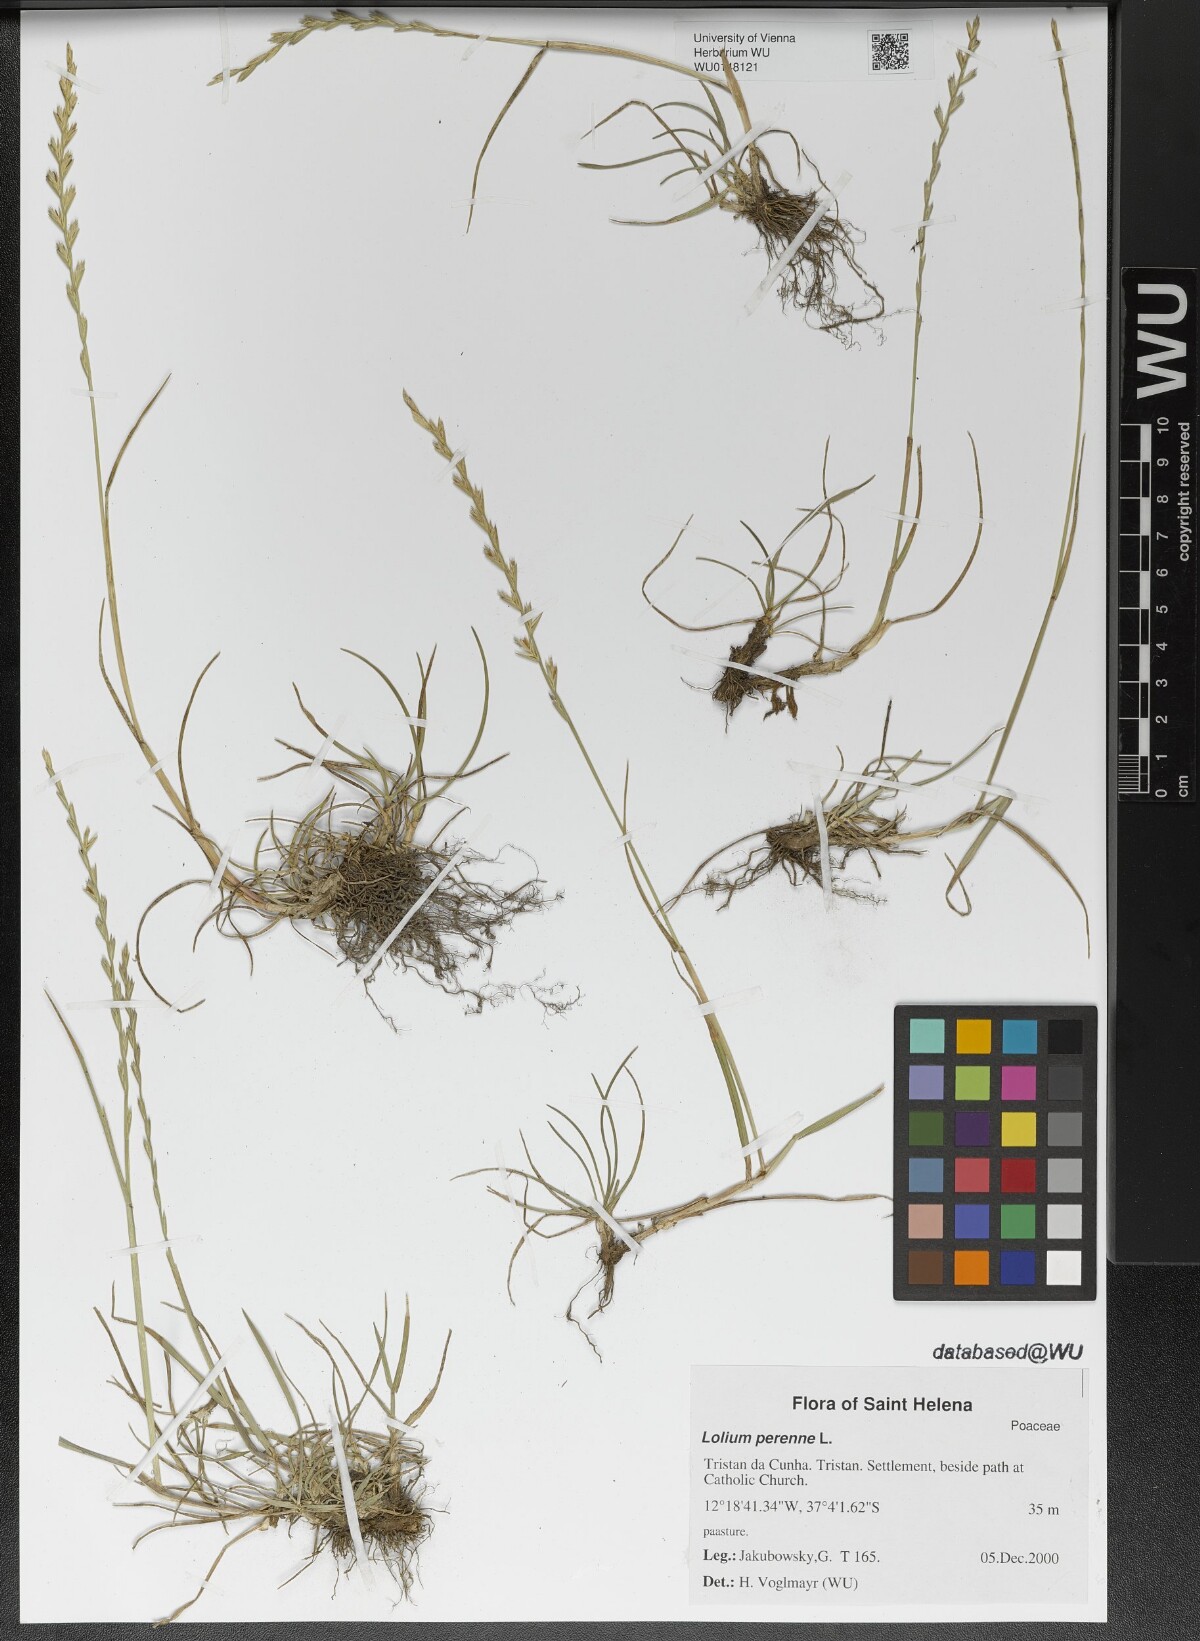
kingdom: Plantae
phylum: Tracheophyta
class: Liliopsida
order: Poales
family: Poaceae
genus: Lolium
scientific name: Lolium perenne
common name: Perennial ryegrass
